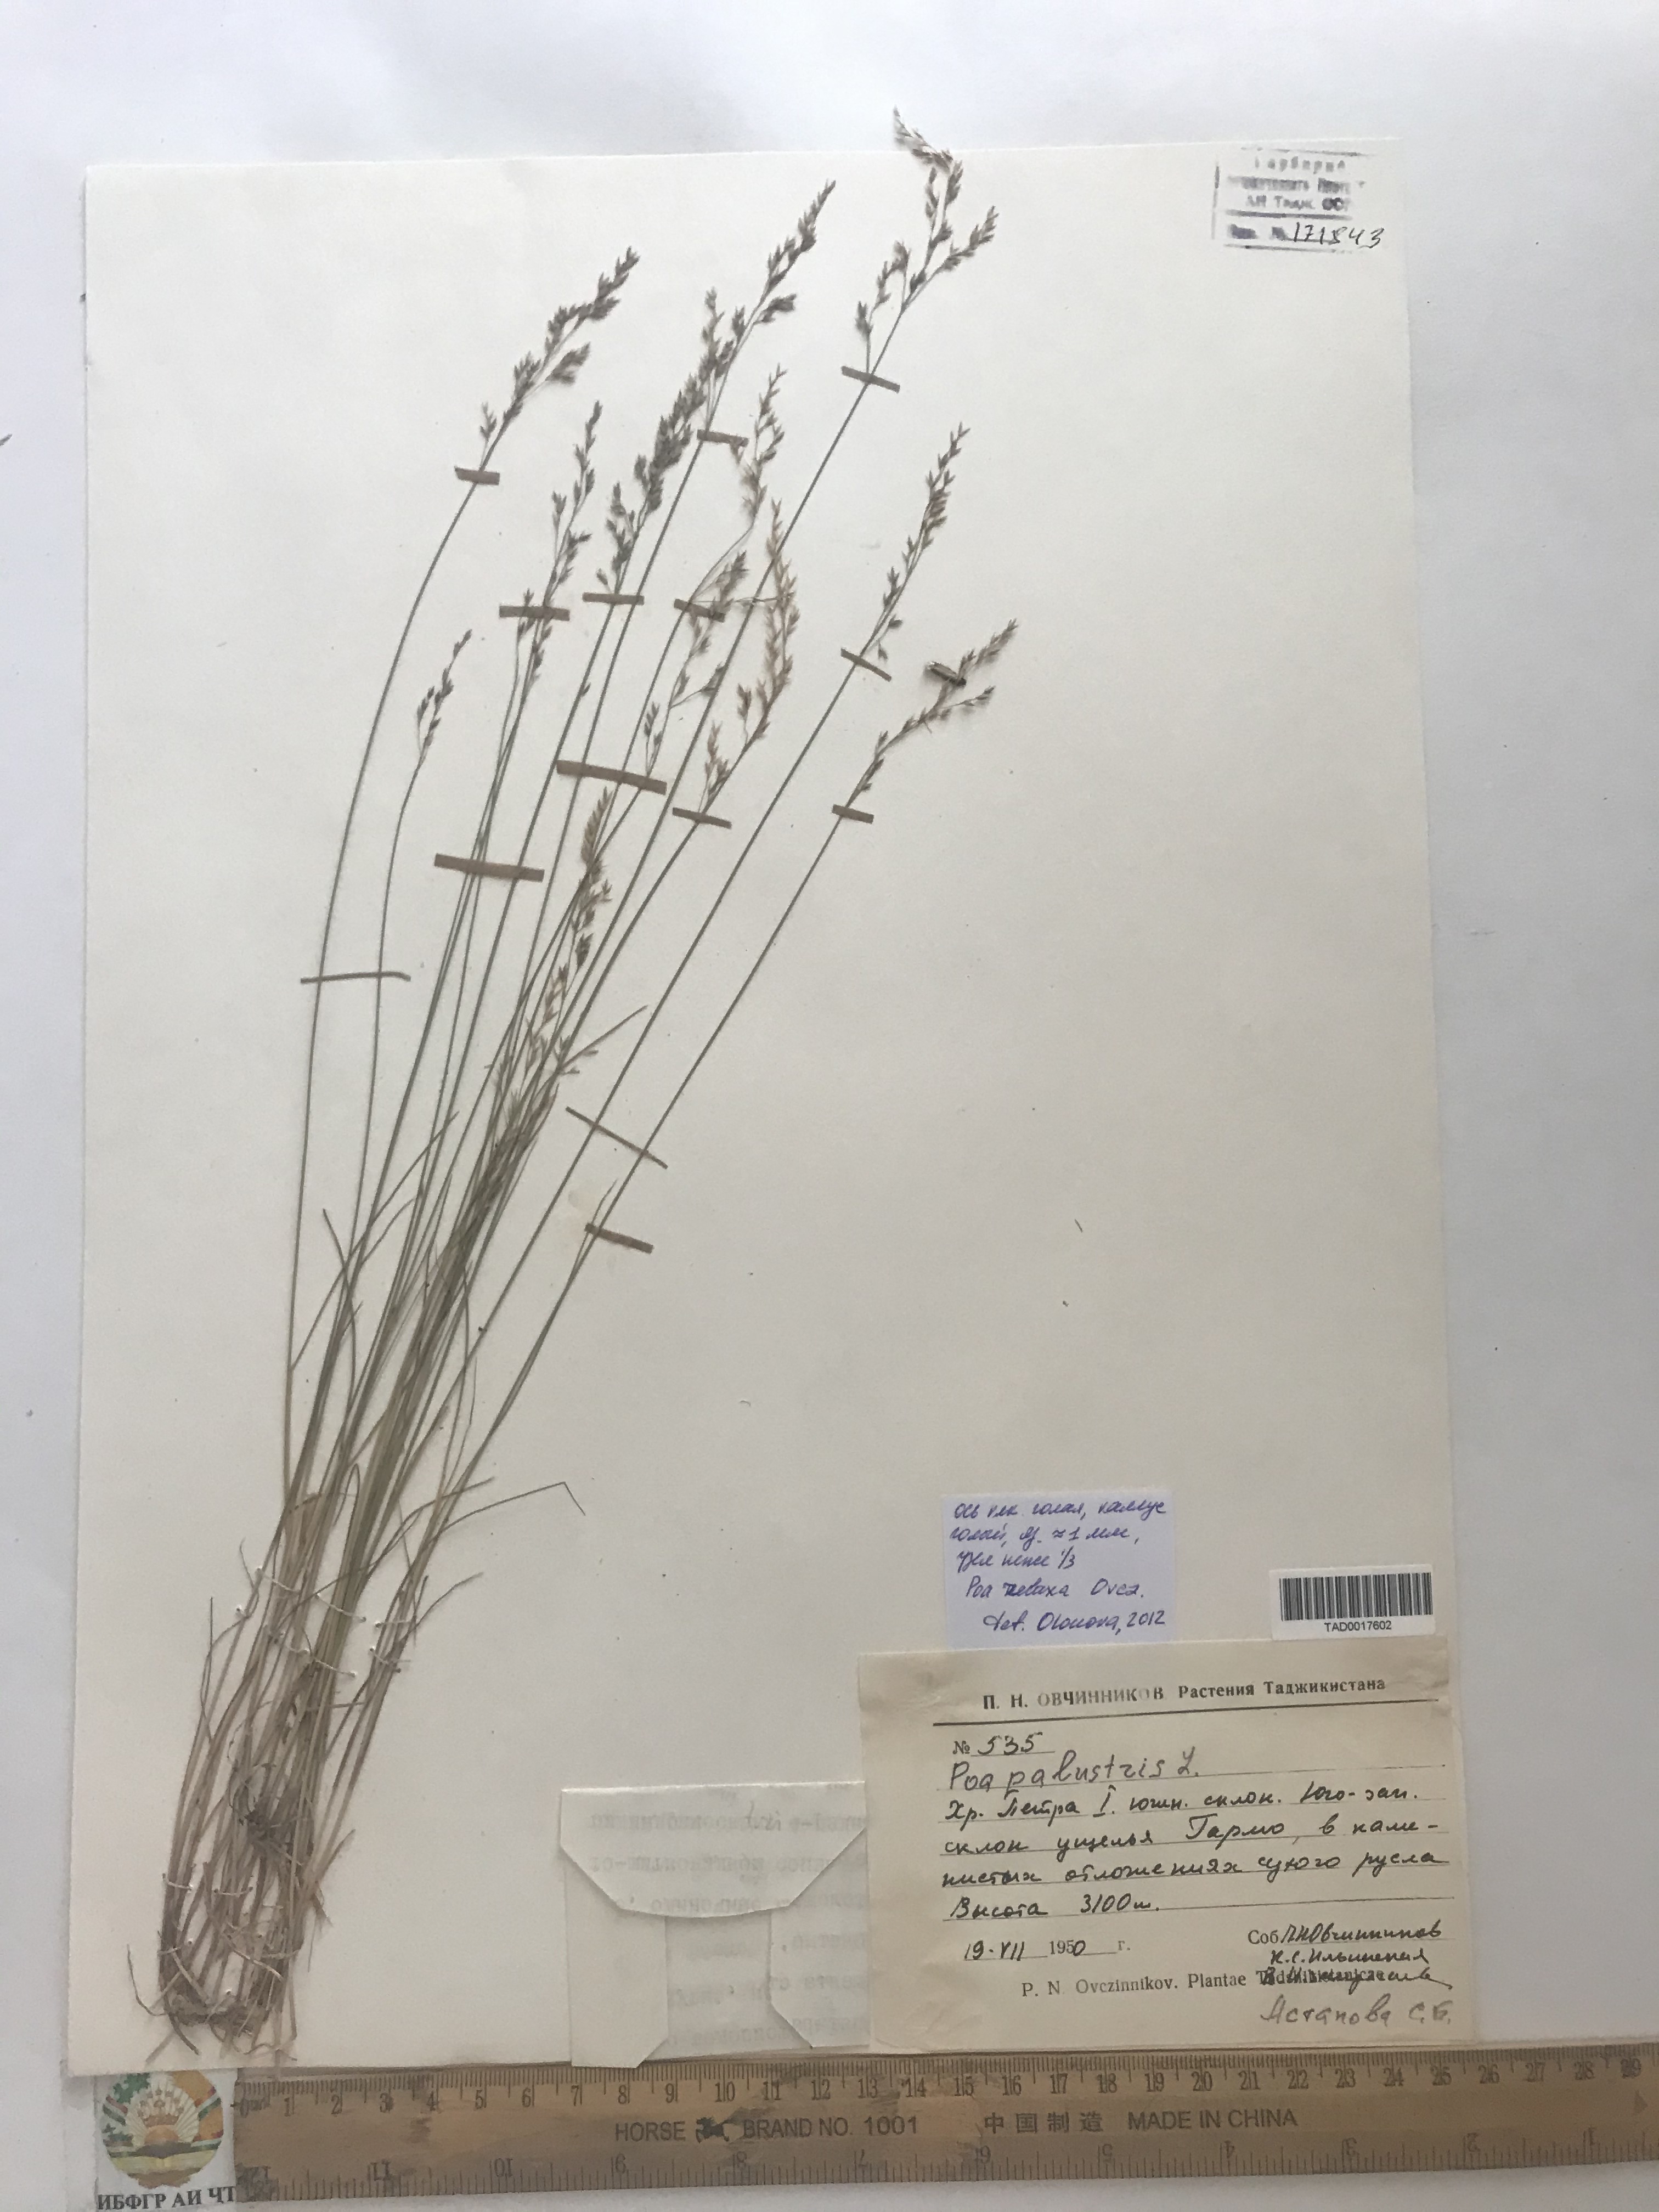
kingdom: Plantae
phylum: Tracheophyta
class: Liliopsida
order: Poales
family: Poaceae
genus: Poa
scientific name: Poa versicolor
